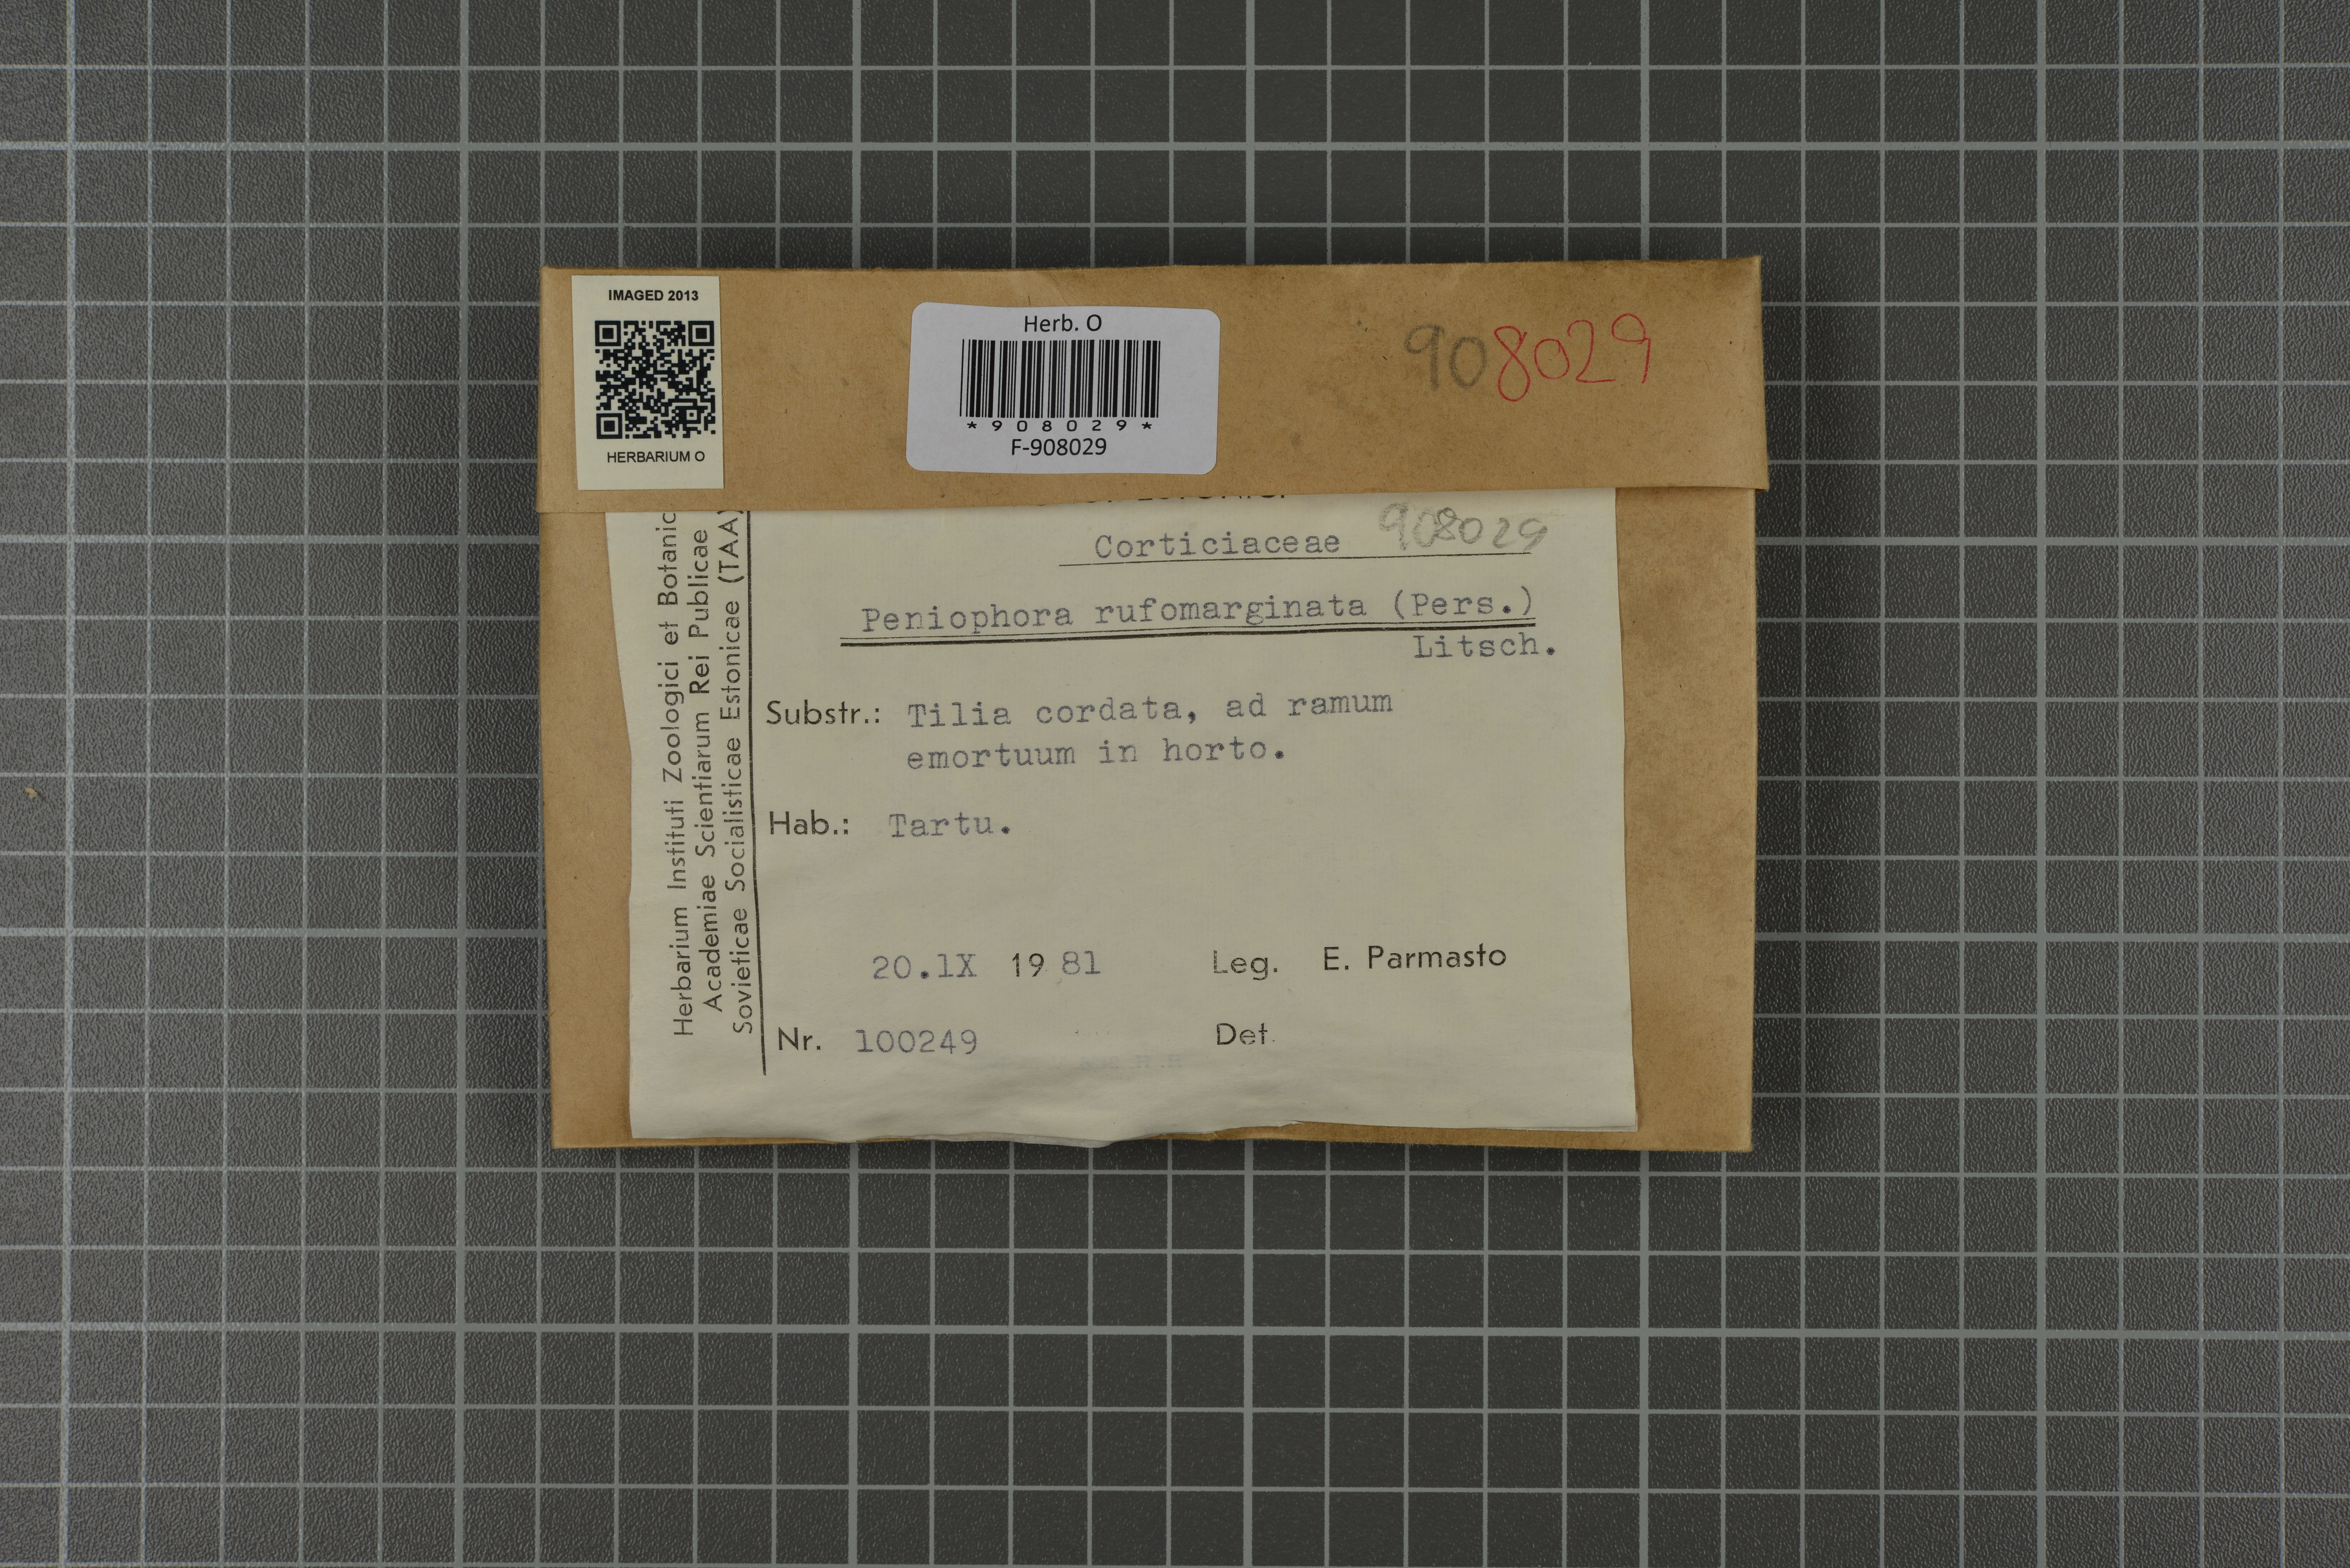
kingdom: Fungi
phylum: Basidiomycota
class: Agaricomycetes
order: Russulales
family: Peniophoraceae
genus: Peniophora
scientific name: Peniophora rufomarginata
